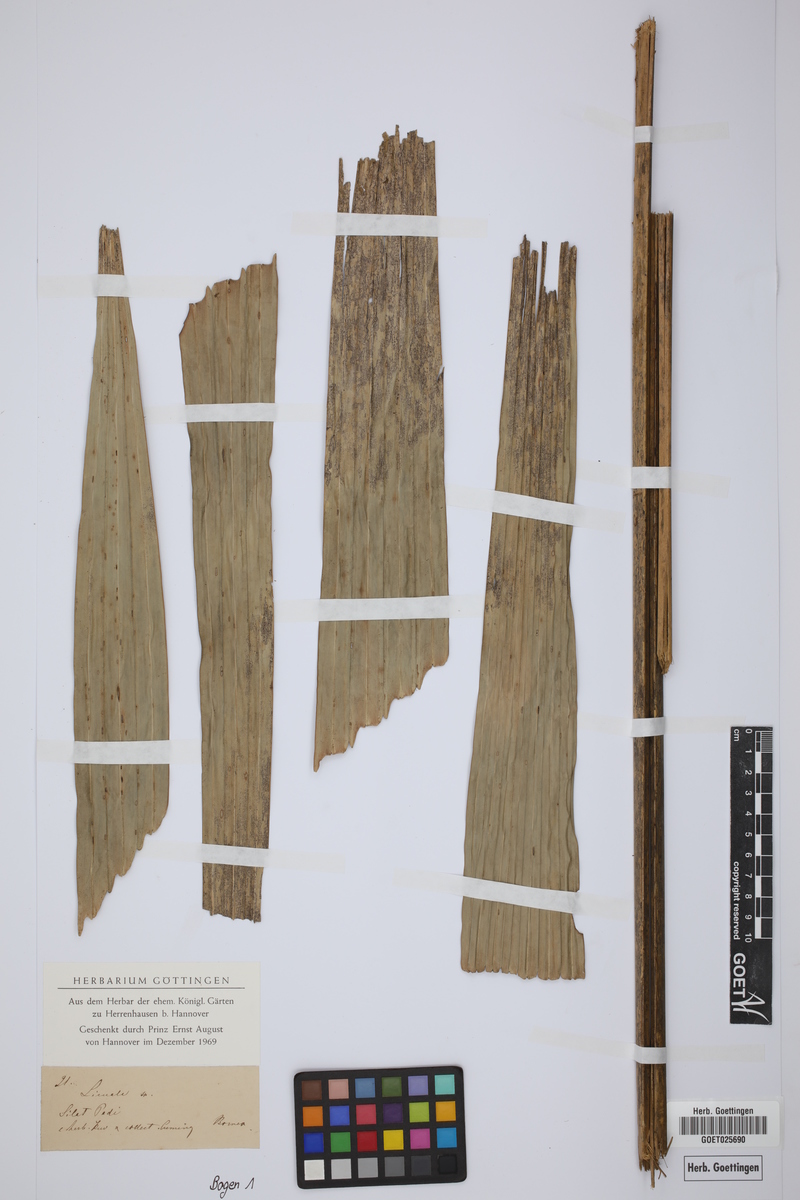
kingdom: Plantae
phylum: Tracheophyta
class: Liliopsida
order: Arecales
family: Arecaceae
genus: Licuala
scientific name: Licuala
